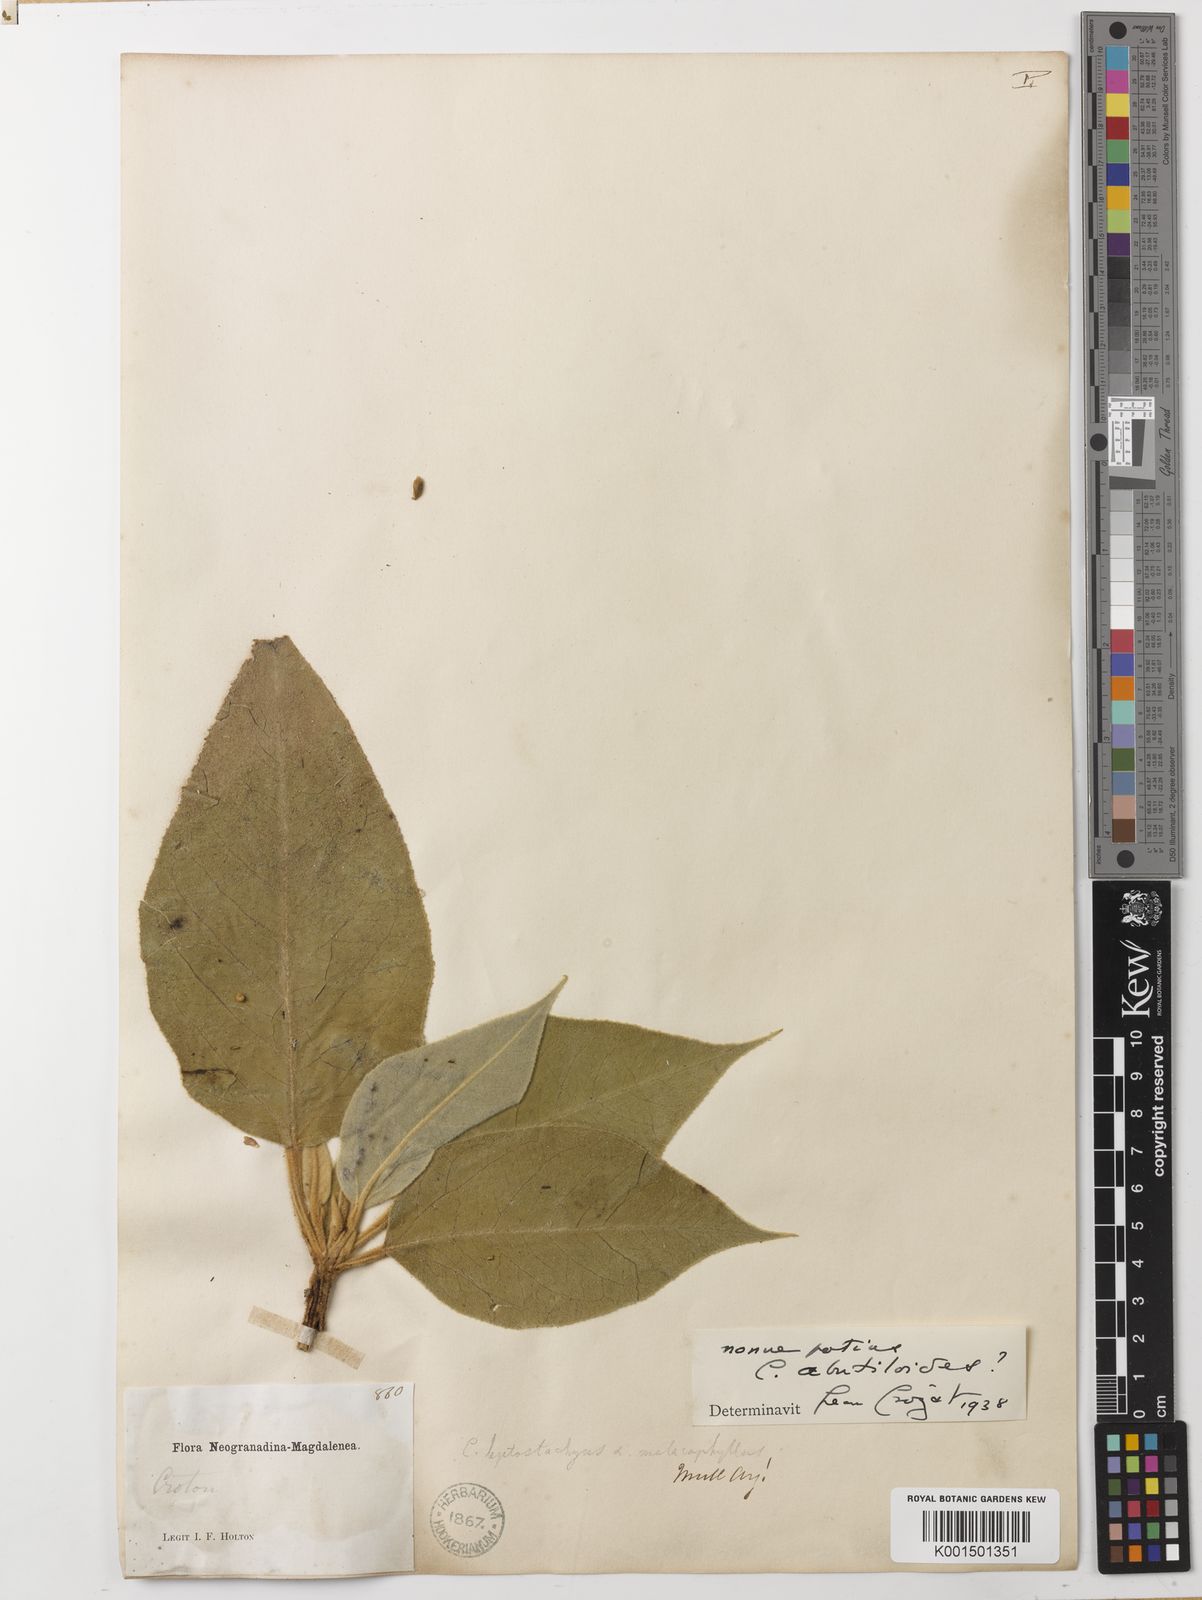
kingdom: Plantae
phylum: Tracheophyta
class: Magnoliopsida
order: Malpighiales
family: Euphorbiaceae
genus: Croton
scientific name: Croton abutiloides
